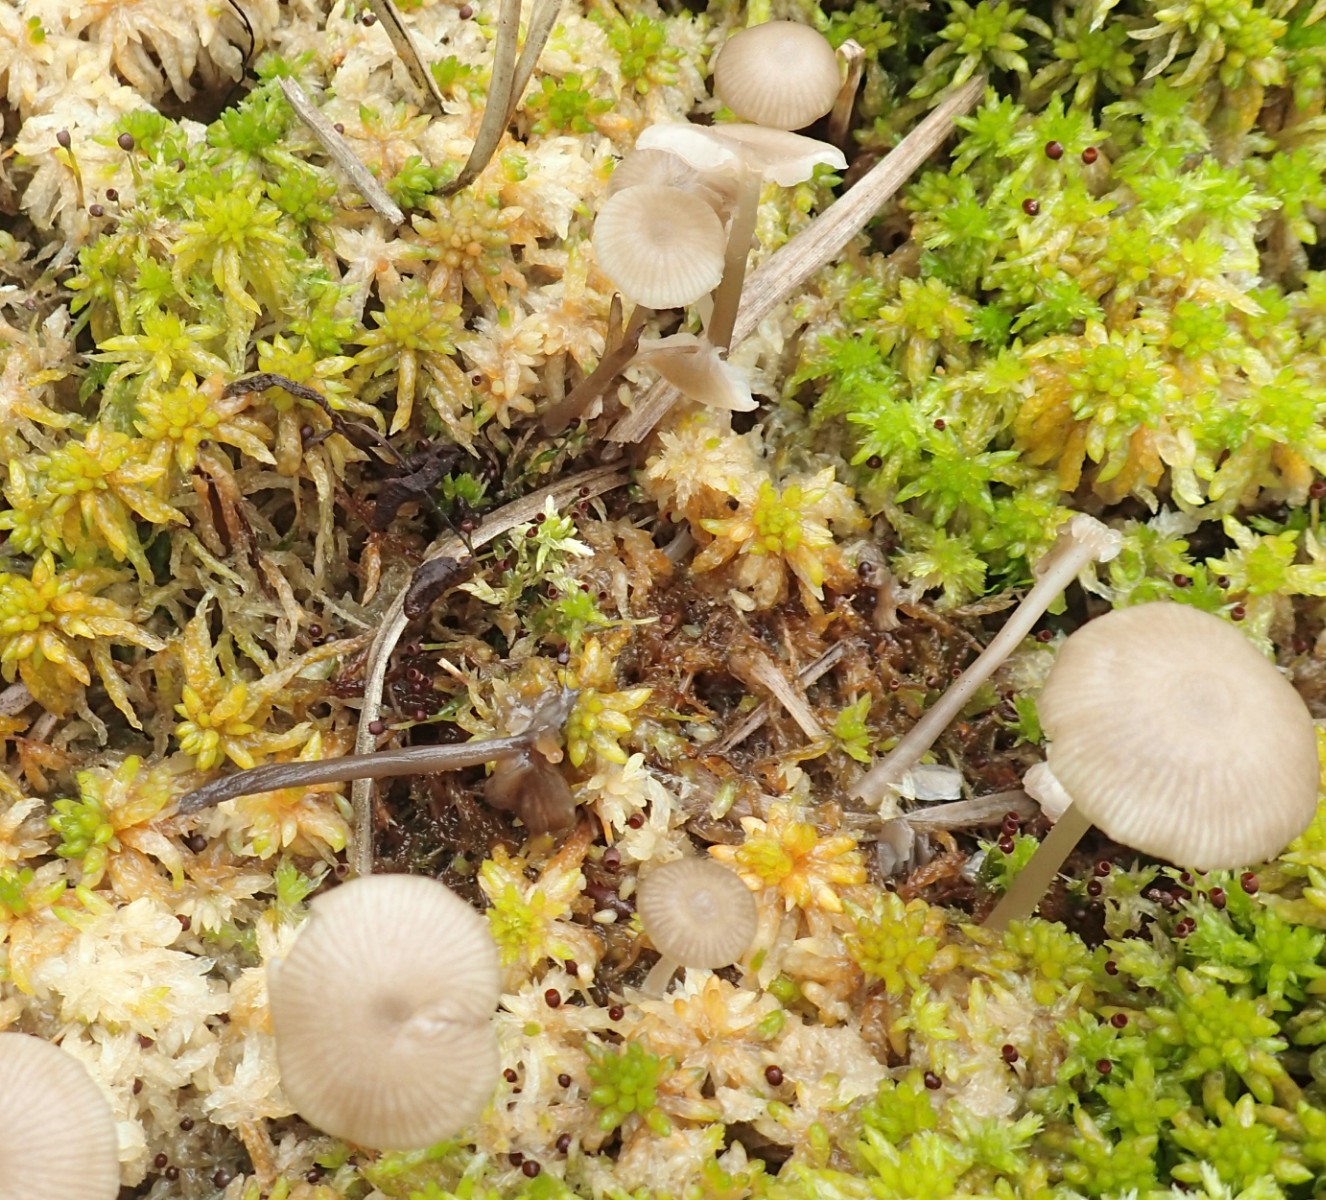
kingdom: Fungi
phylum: Basidiomycota
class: Agaricomycetes
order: Agaricales
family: Lyophyllaceae
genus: Sphagnurus
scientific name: Sphagnurus paluster
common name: tørvemos-gråblad
